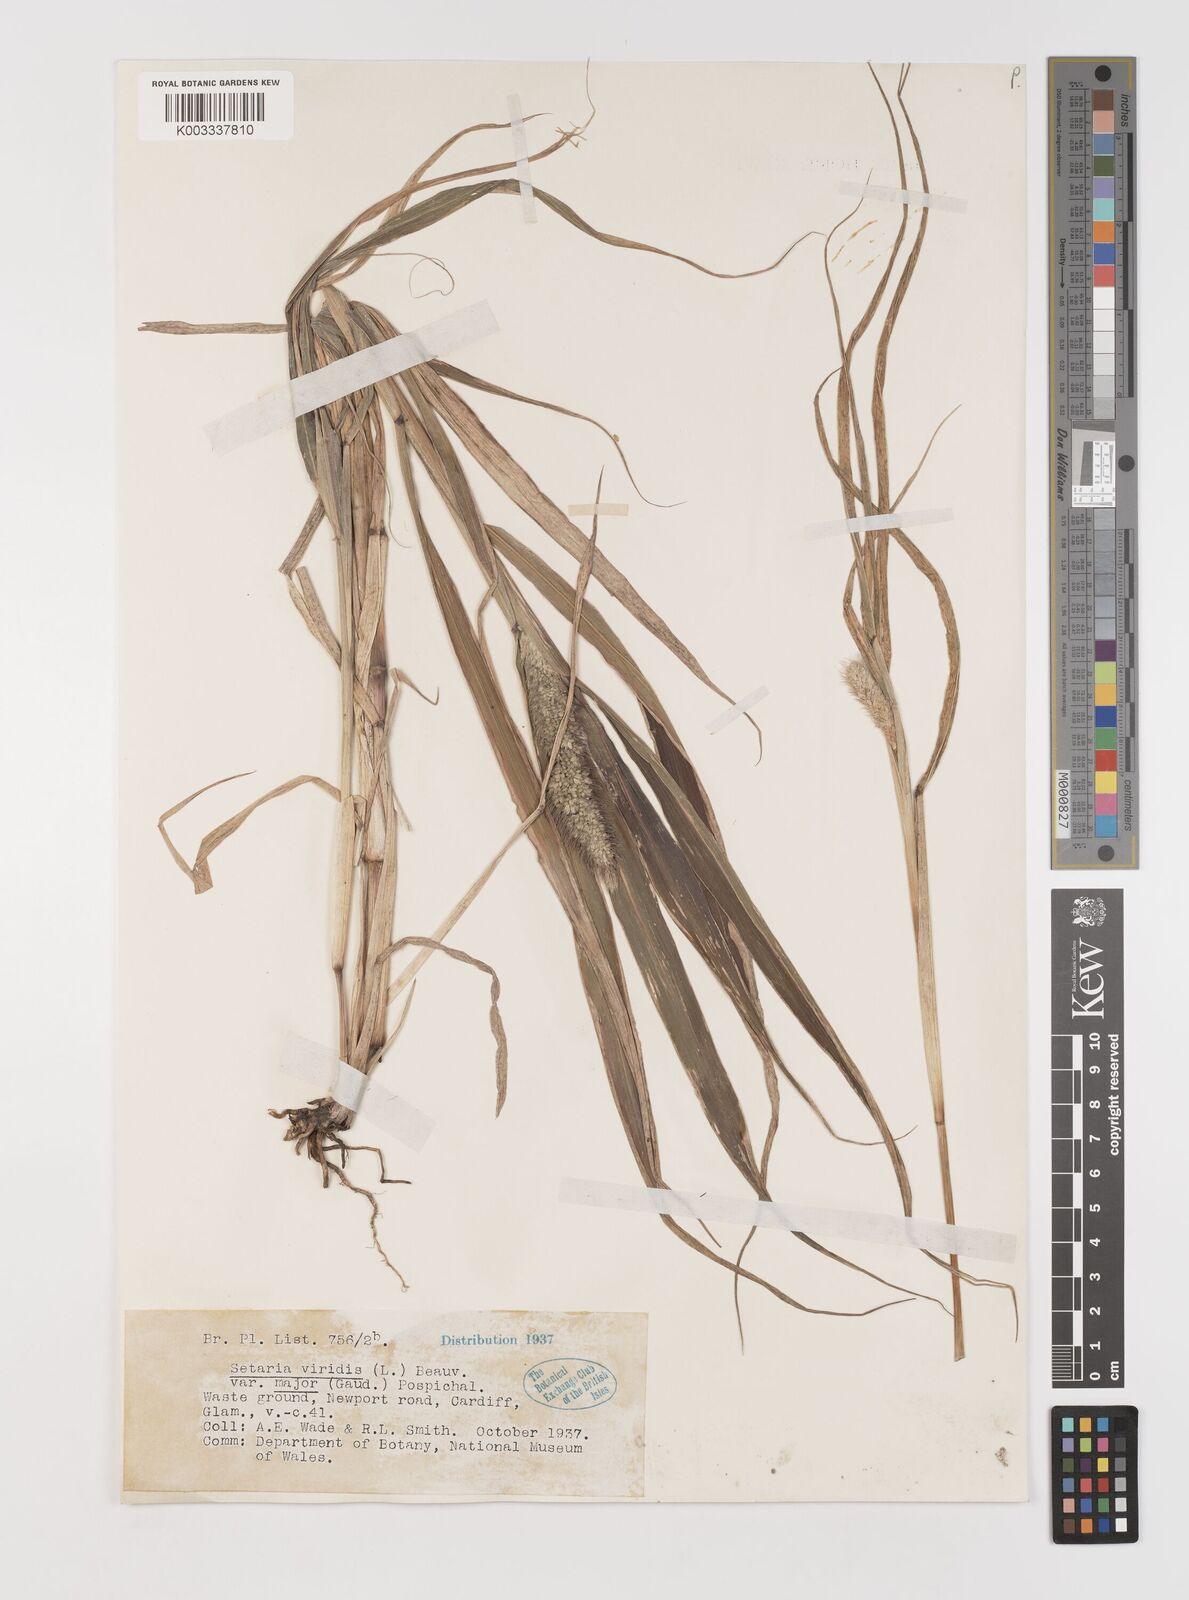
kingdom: Plantae
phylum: Tracheophyta
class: Liliopsida
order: Poales
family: Poaceae
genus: Setaria
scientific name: Setaria viridis
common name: Green bristlegrass
